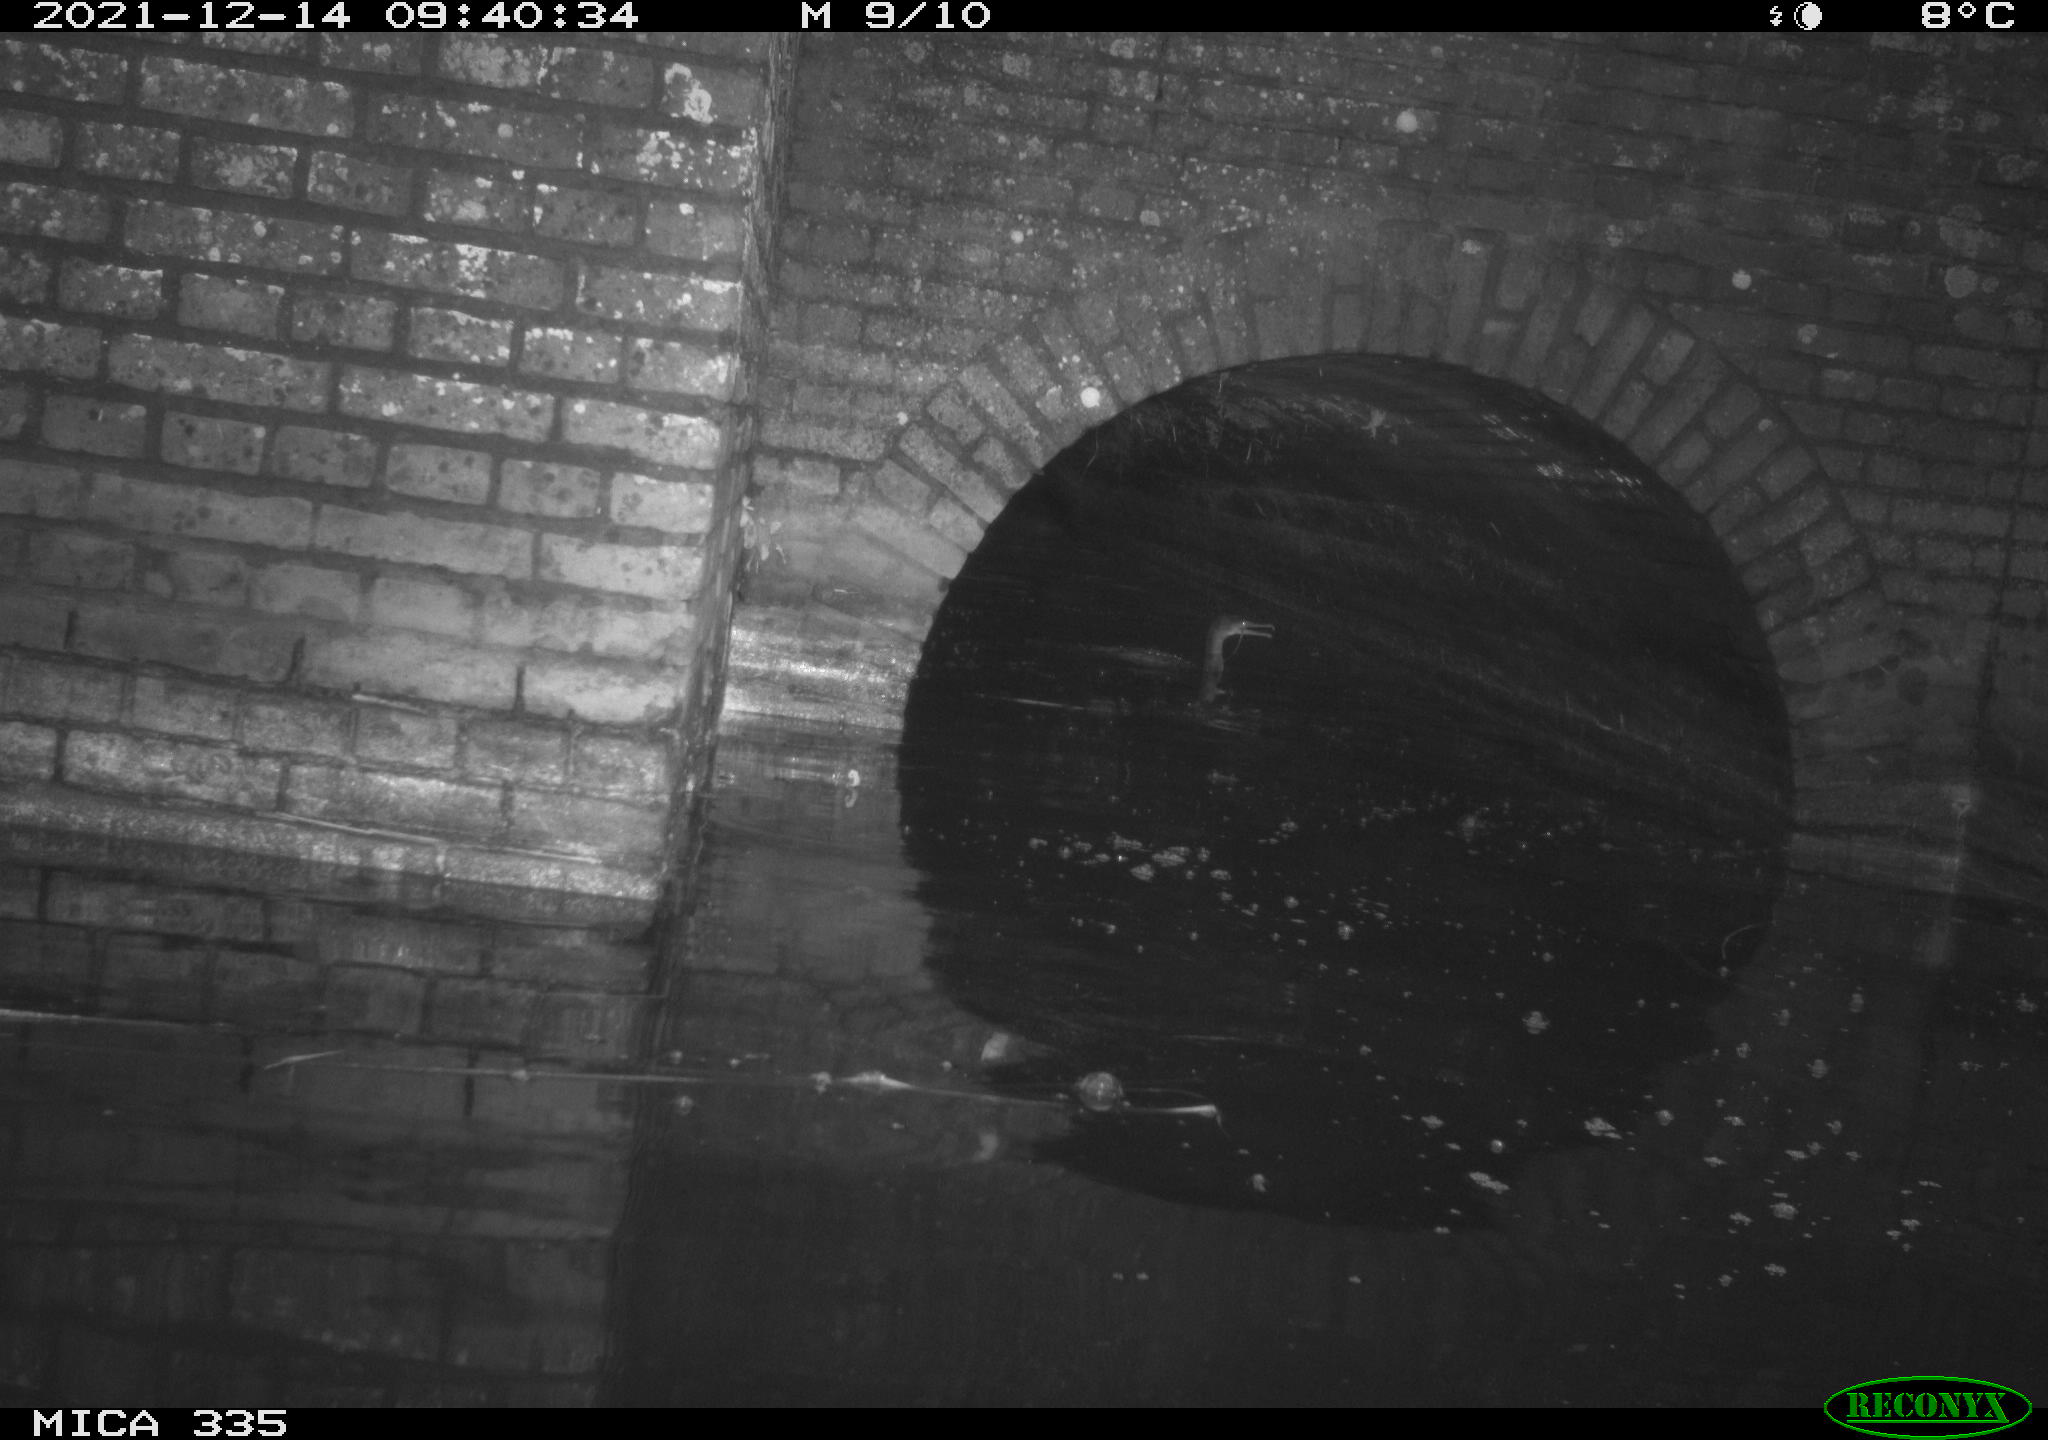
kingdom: Animalia
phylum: Chordata
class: Aves
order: Suliformes
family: Phalacrocoracidae
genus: Phalacrocorax
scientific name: Phalacrocorax carbo
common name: Great cormorant
